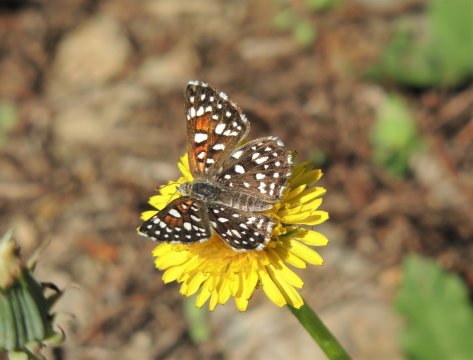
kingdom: Animalia
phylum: Arthropoda
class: Insecta
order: Lepidoptera
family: Riodinidae
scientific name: Riodinidae
